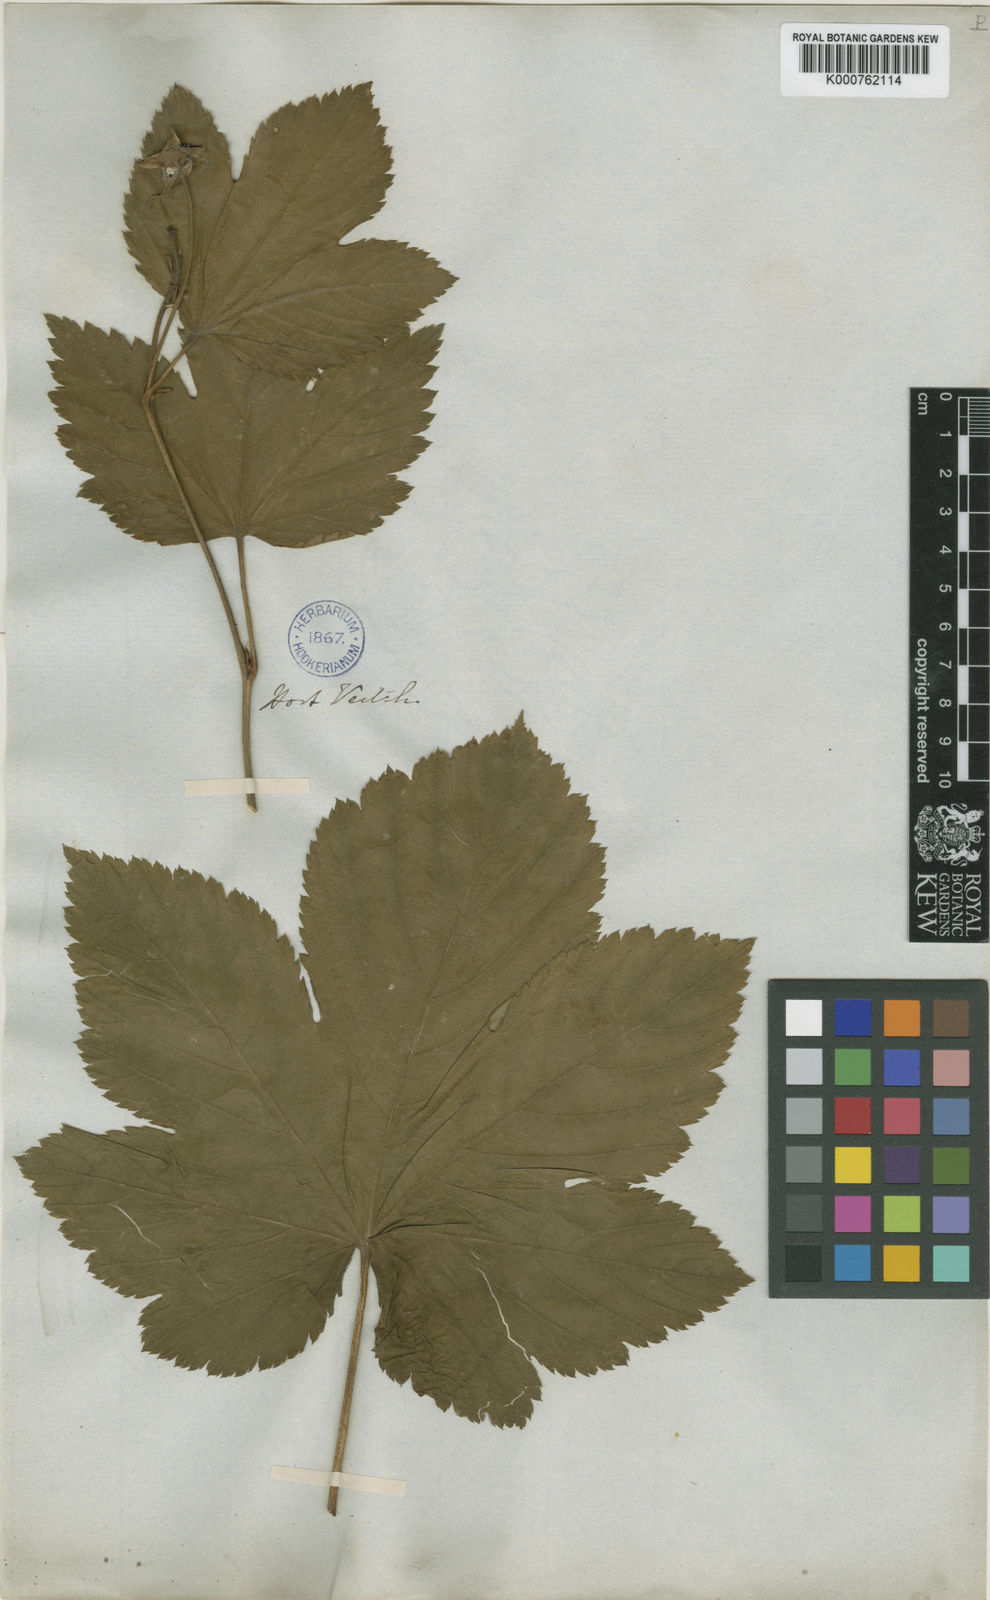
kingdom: Plantae
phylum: Tracheophyta
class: Magnoliopsida
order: Rosales
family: Rosaceae
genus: Rubus
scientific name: Rubus trifidus
